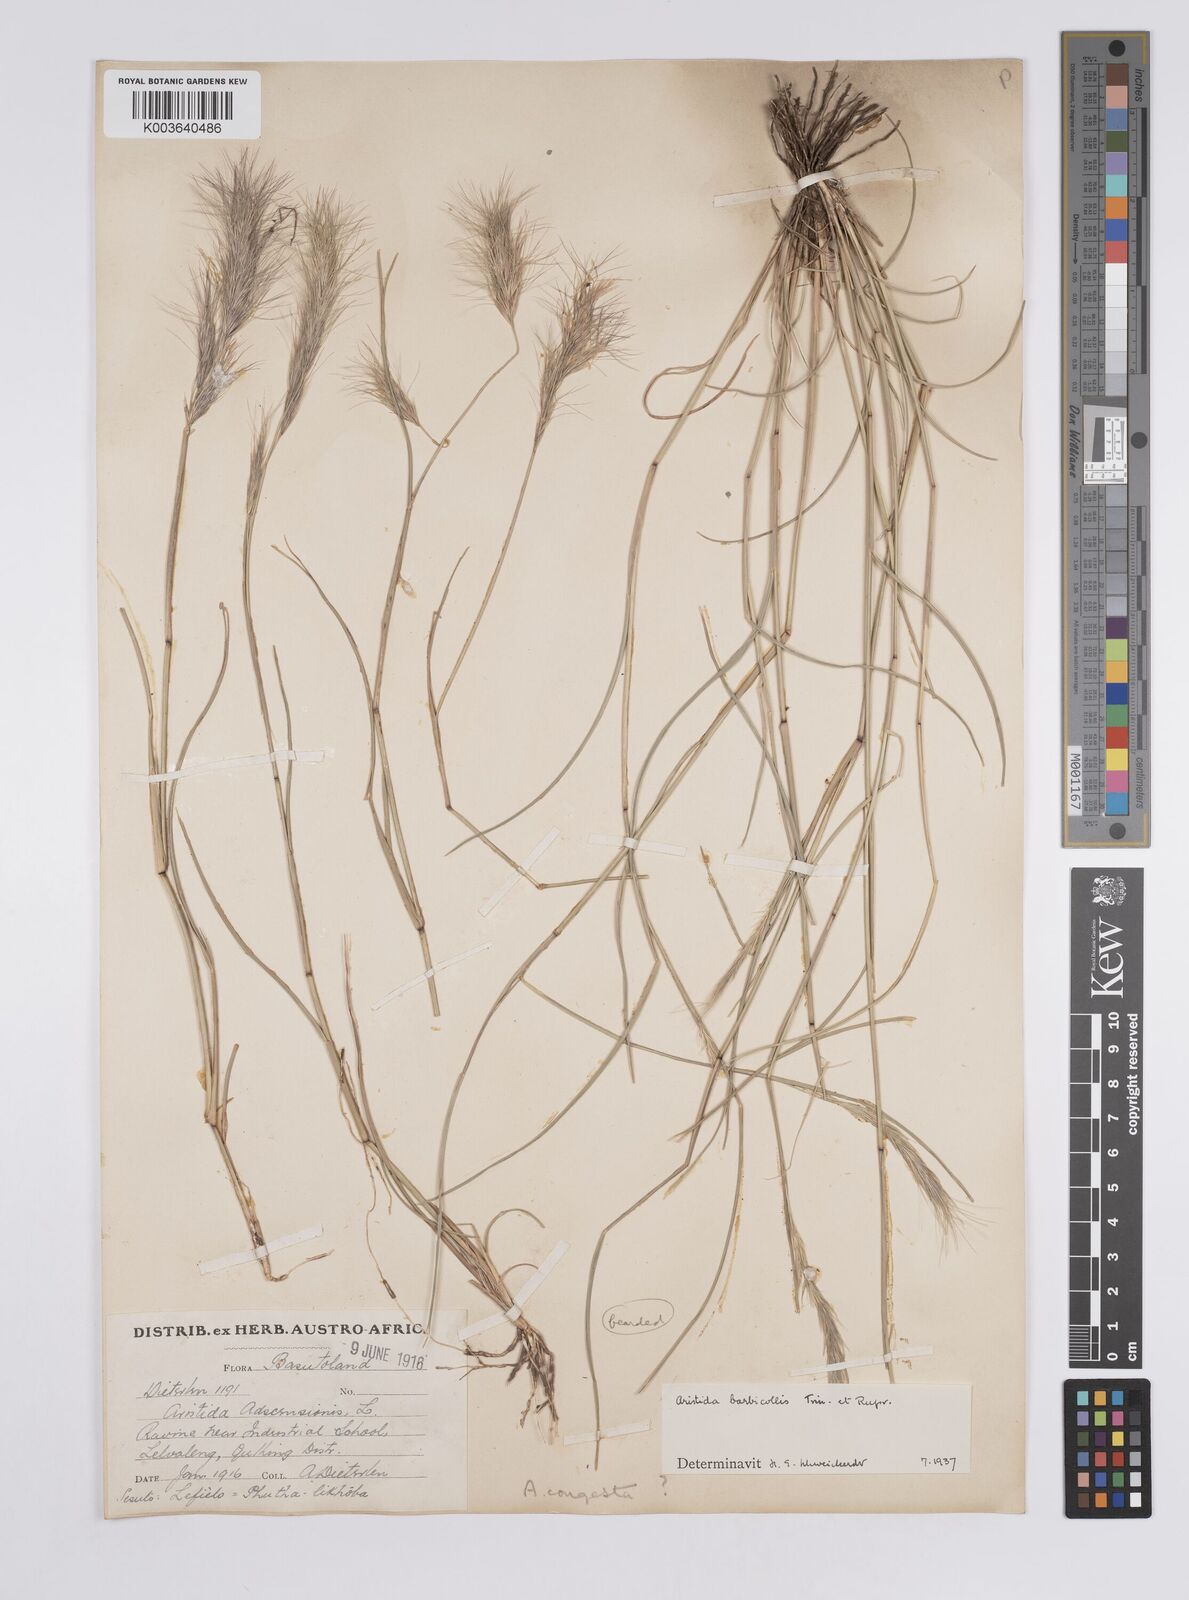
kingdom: Plantae
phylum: Tracheophyta
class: Liliopsida
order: Poales
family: Poaceae
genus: Aristida
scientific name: Aristida barbicollis
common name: Spreading prickle grass
